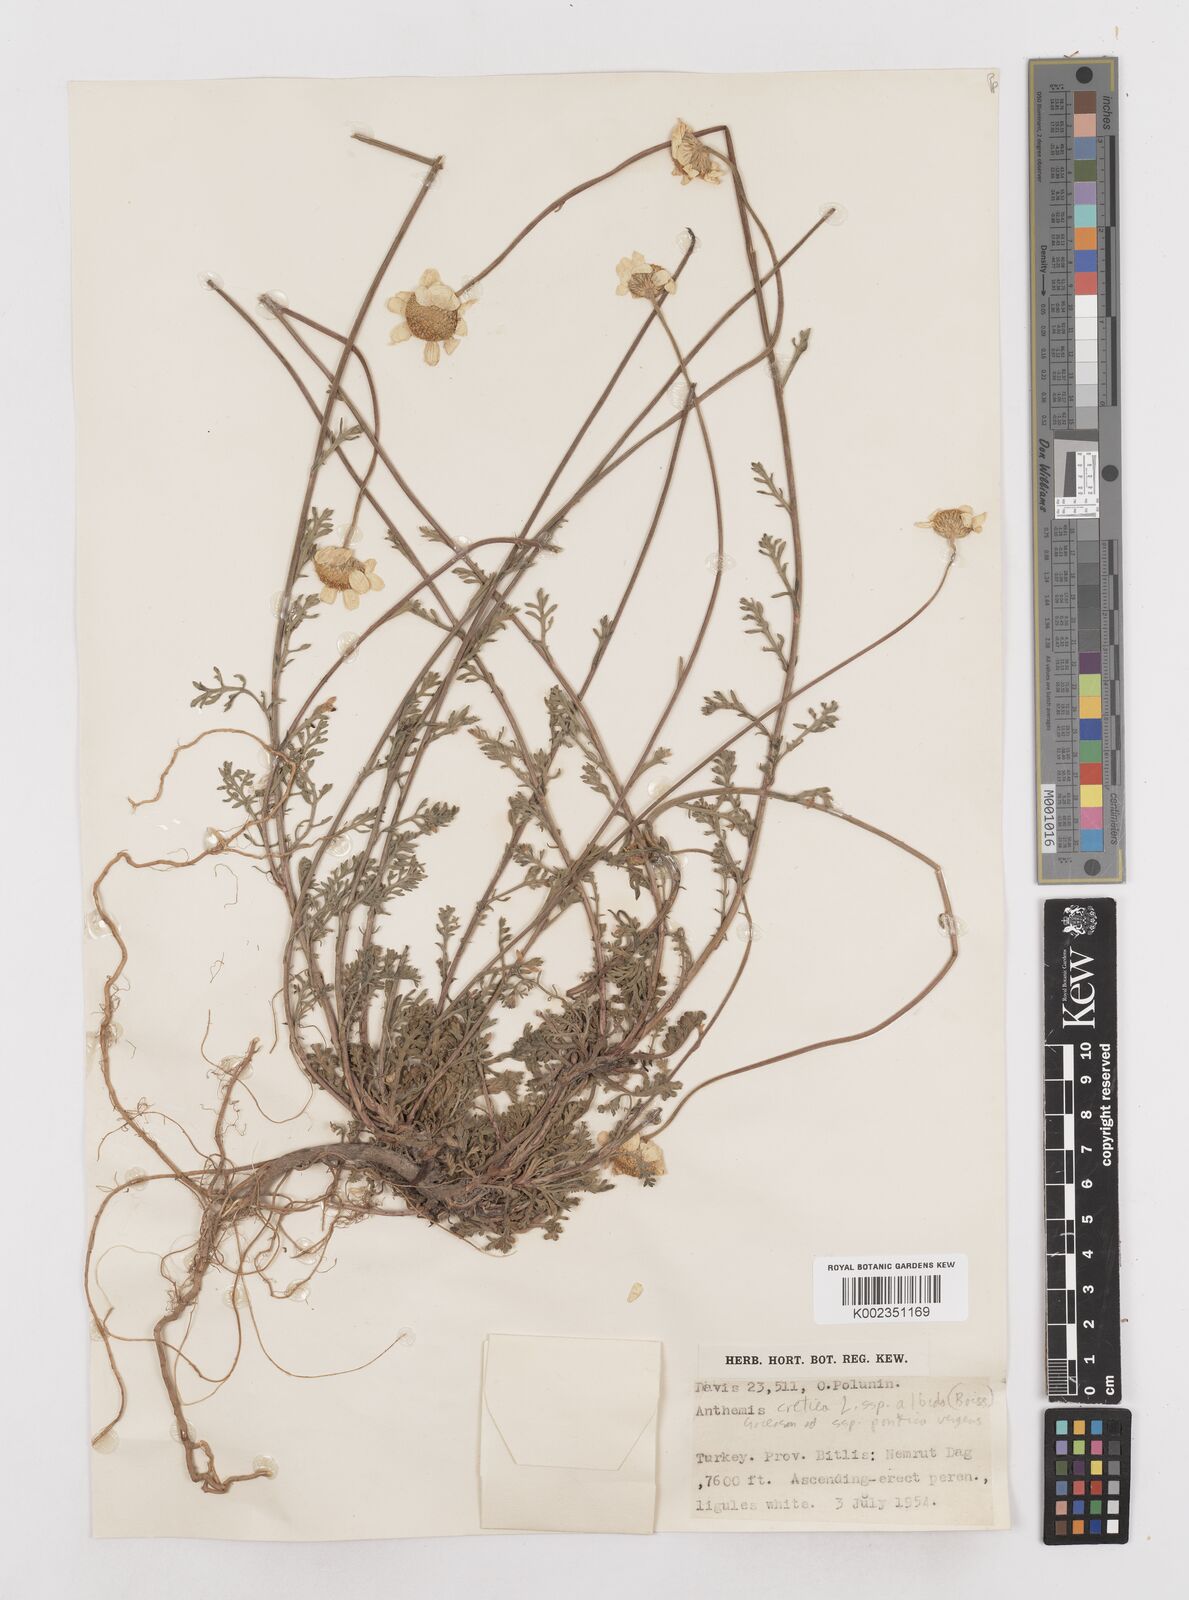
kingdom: Plantae
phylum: Tracheophyta
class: Magnoliopsida
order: Asterales
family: Asteraceae
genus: Anthemis
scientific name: Anthemis cretica
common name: Mountain dog-daisy
